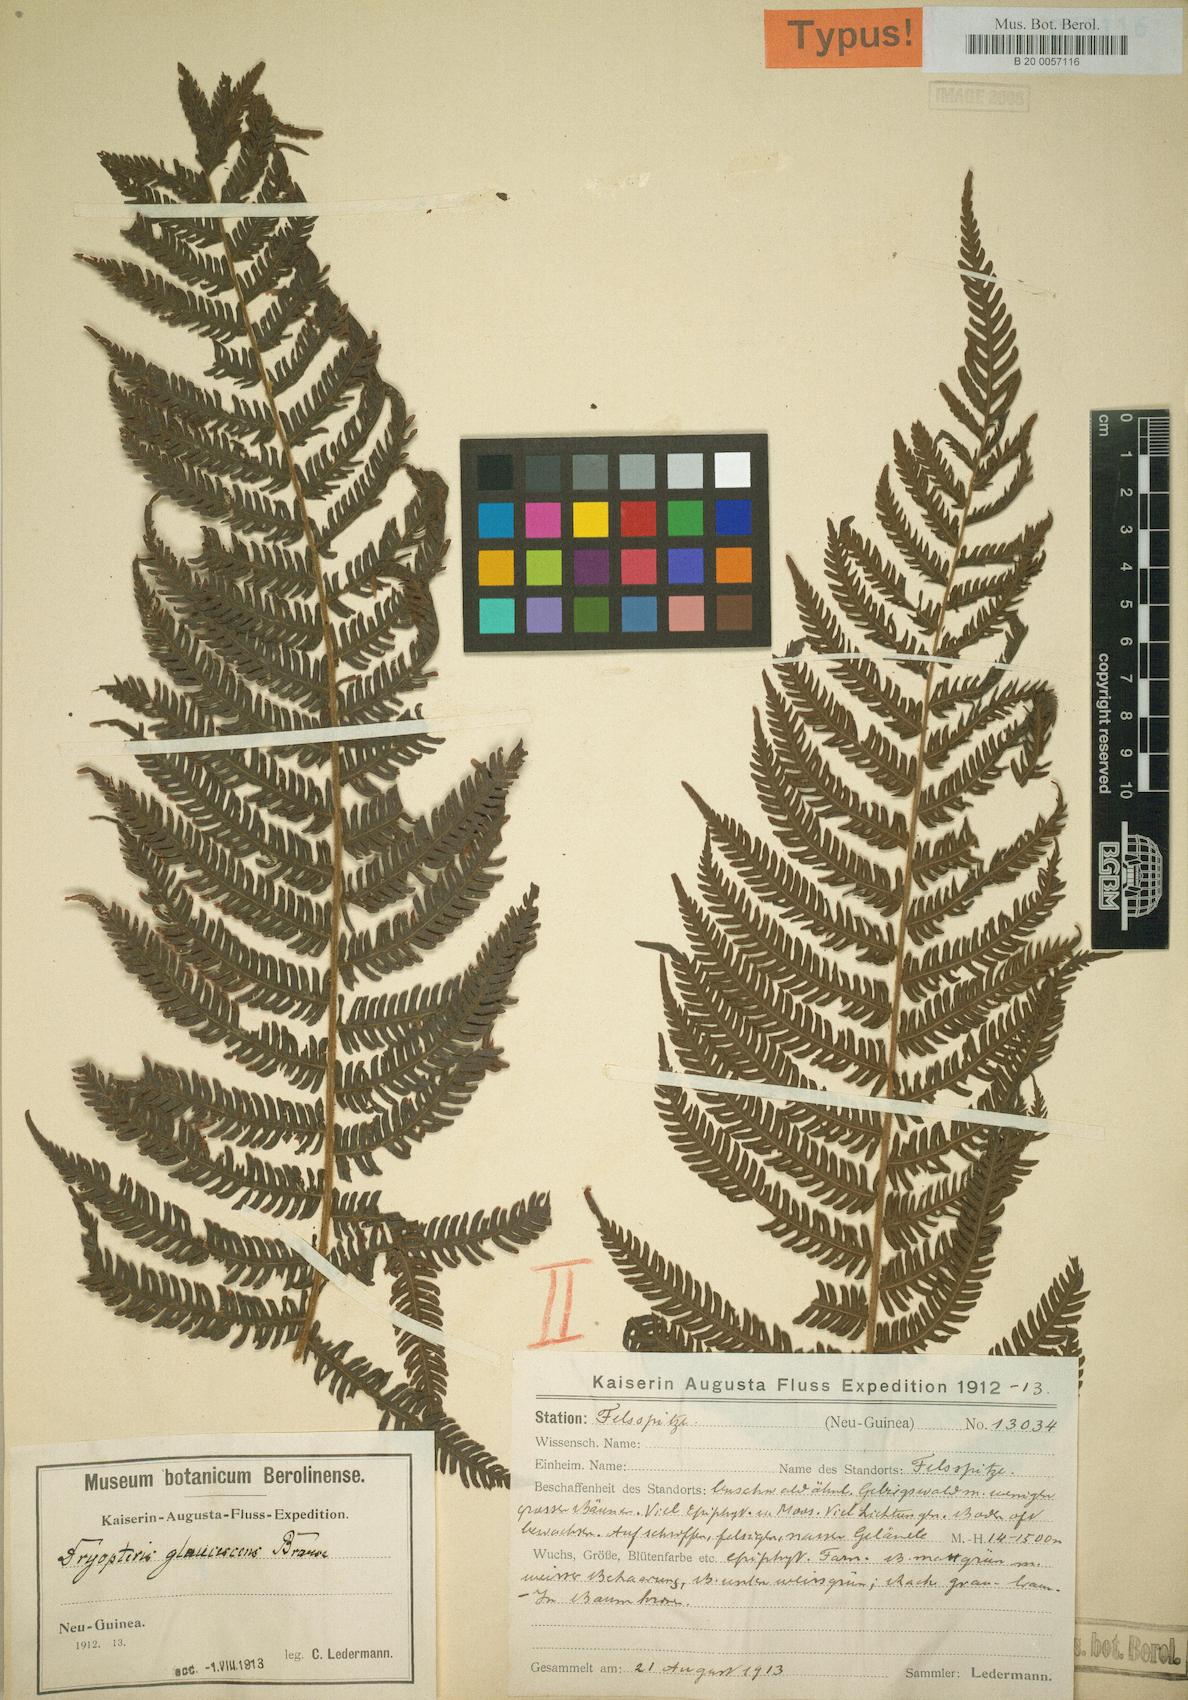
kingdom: Plantae
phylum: Tracheophyta
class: Polypodiopsida
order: Polypodiales
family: Thelypteridaceae
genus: Sphaerostephanos
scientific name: Sphaerostephanos novoguineensis
